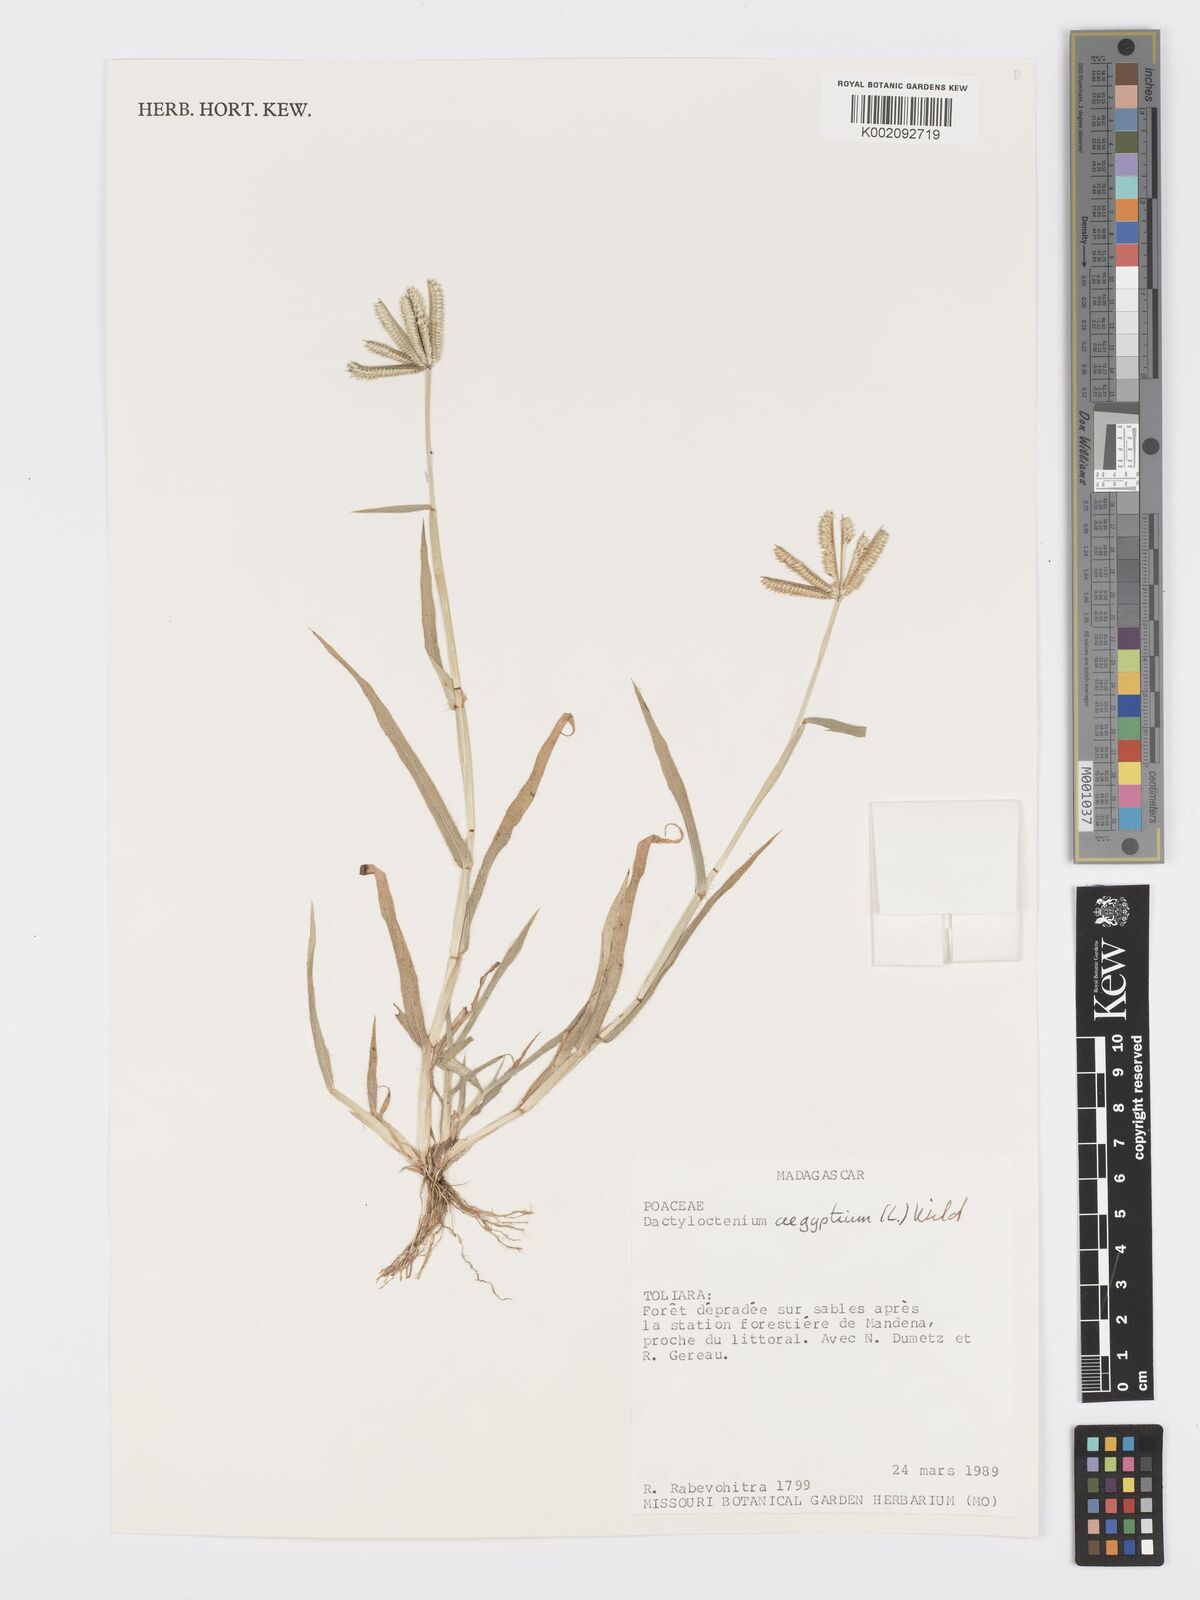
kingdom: Plantae
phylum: Tracheophyta
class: Liliopsida
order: Poales
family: Poaceae
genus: Dactyloctenium
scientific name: Dactyloctenium aegyptium
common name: Egyptian grass
